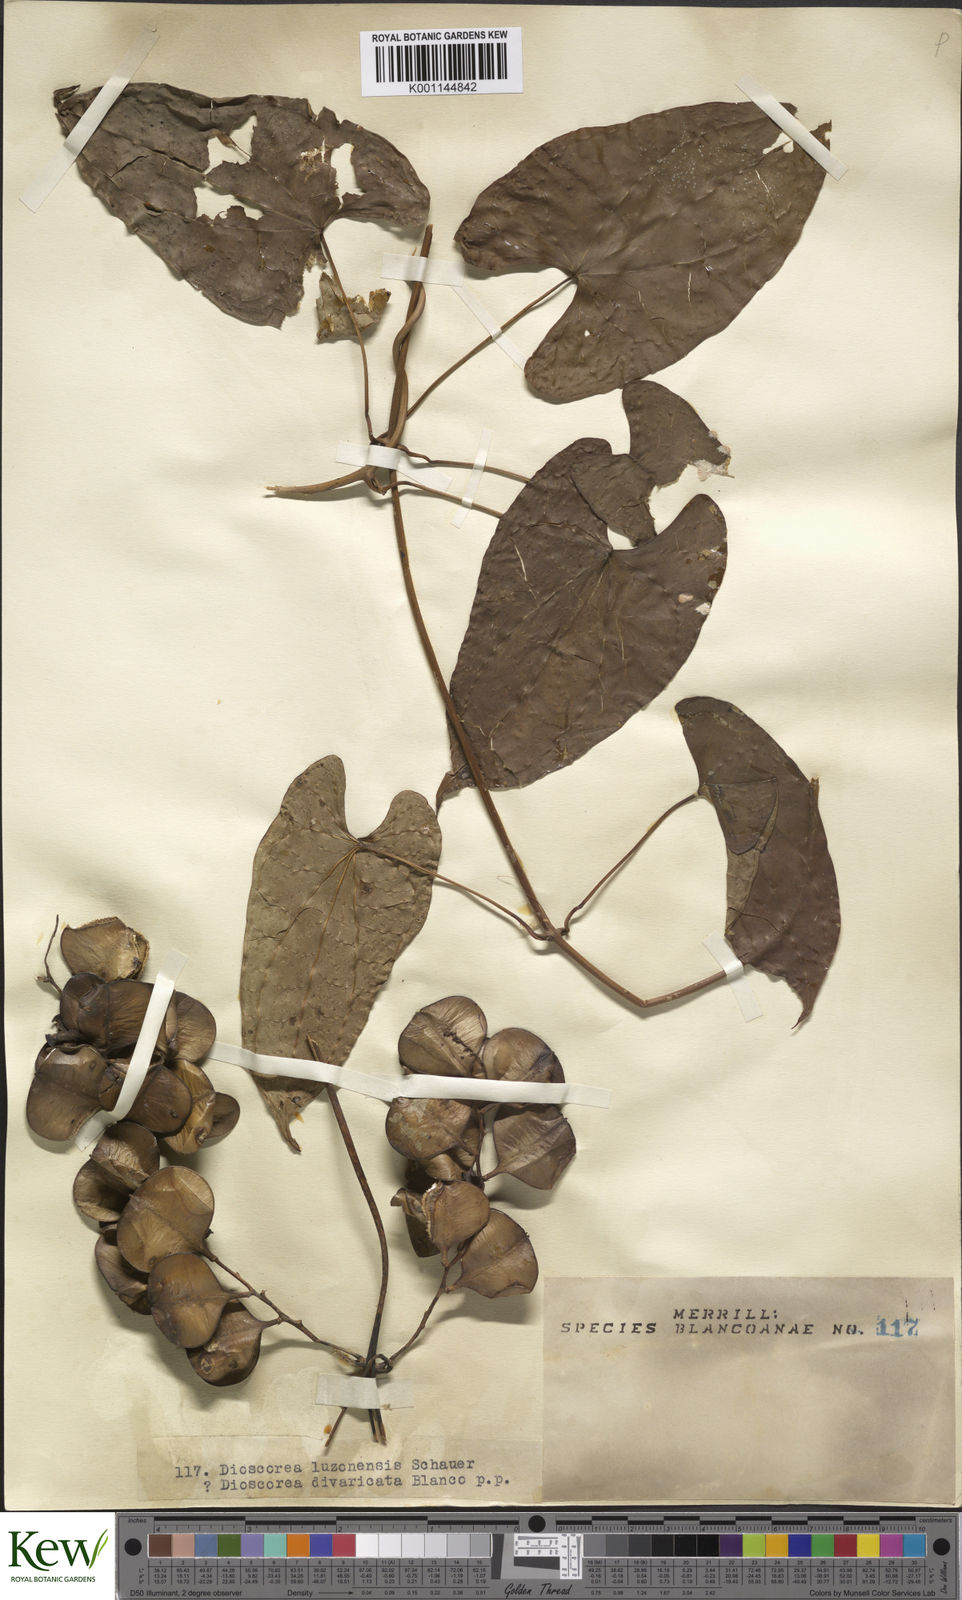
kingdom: Plantae
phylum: Tracheophyta
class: Liliopsida
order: Dioscoreales
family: Dioscoreaceae
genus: Dioscorea
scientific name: Dioscorea luzonensis
